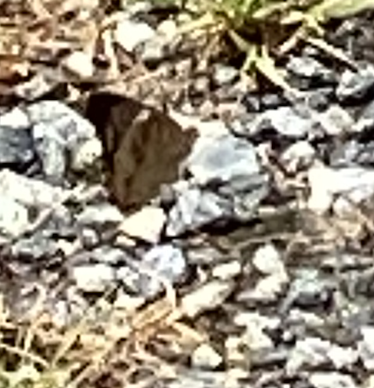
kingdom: Animalia
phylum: Arthropoda
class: Insecta
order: Lepidoptera
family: Nymphalidae
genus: Polygonia
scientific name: Polygonia comma
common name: Eastern Comma
